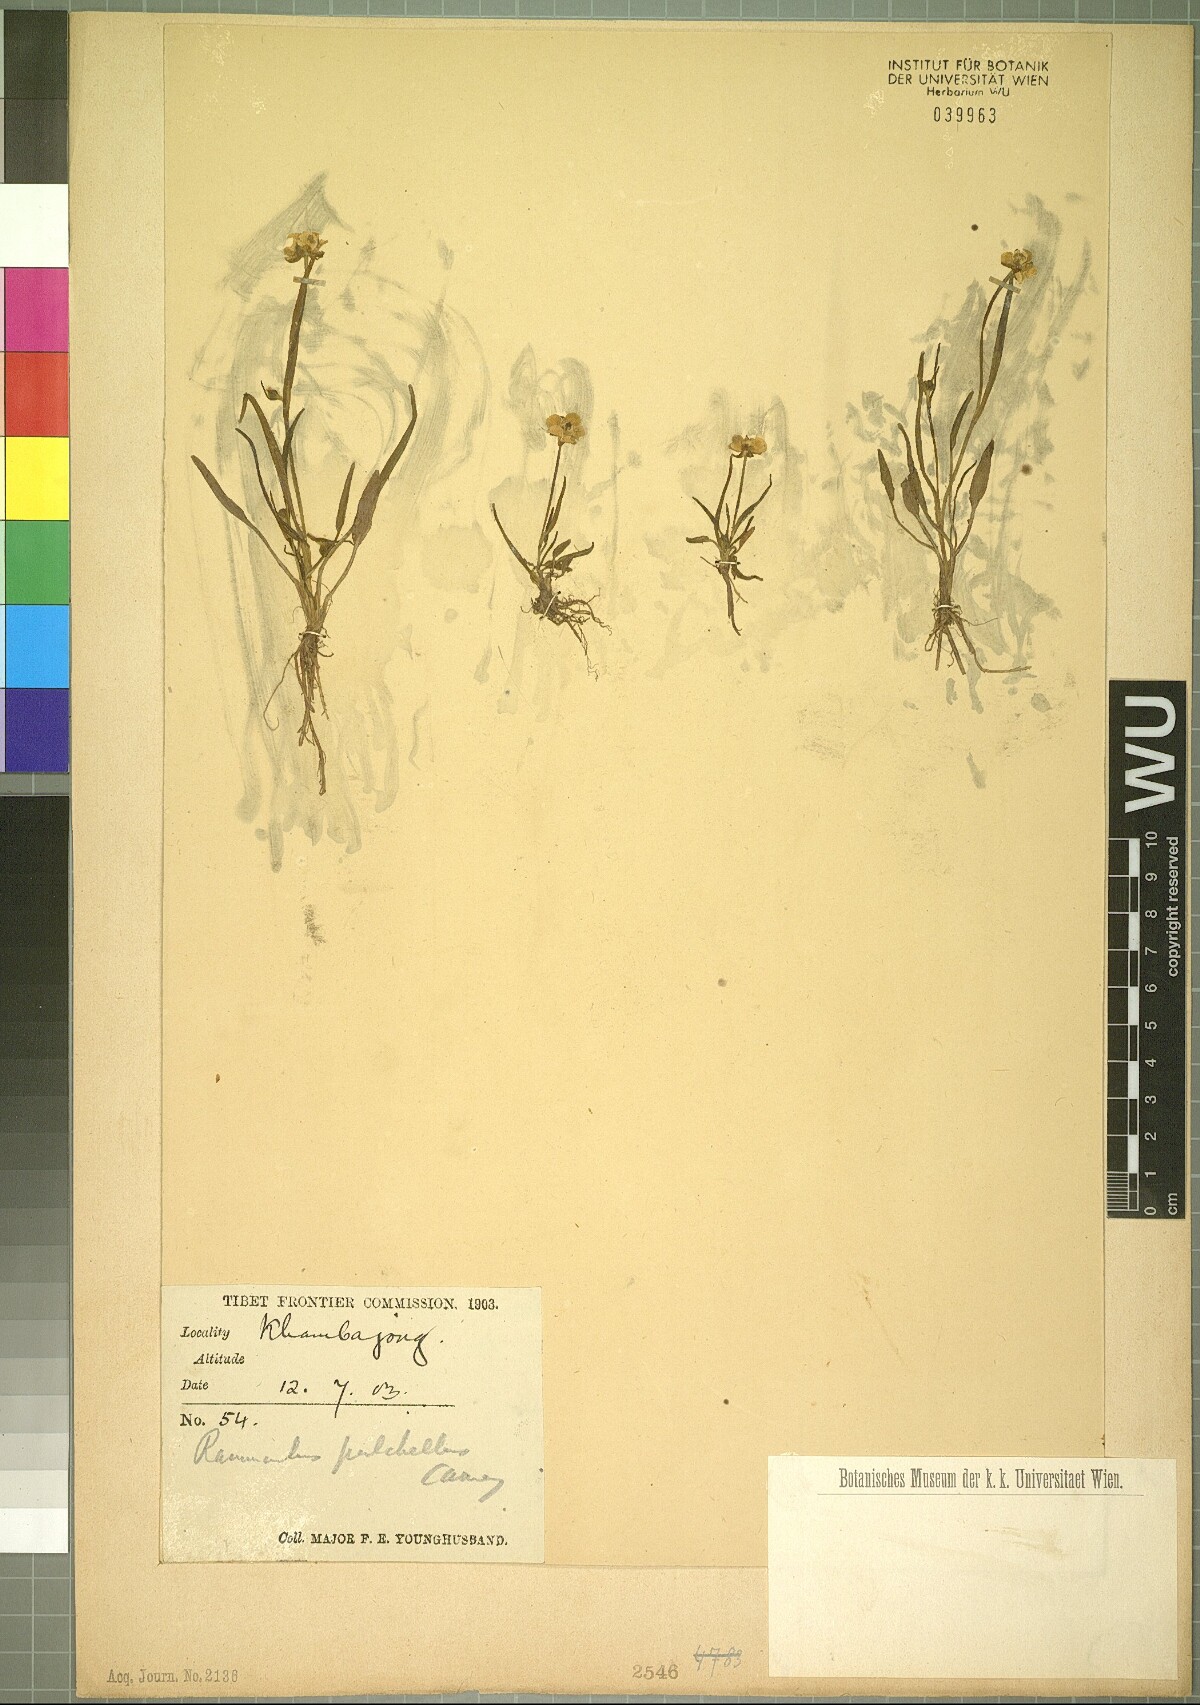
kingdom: Plantae
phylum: Tracheophyta
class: Magnoliopsida
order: Ranunculales
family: Ranunculaceae
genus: Ranunculus
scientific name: Ranunculus pulchellus
